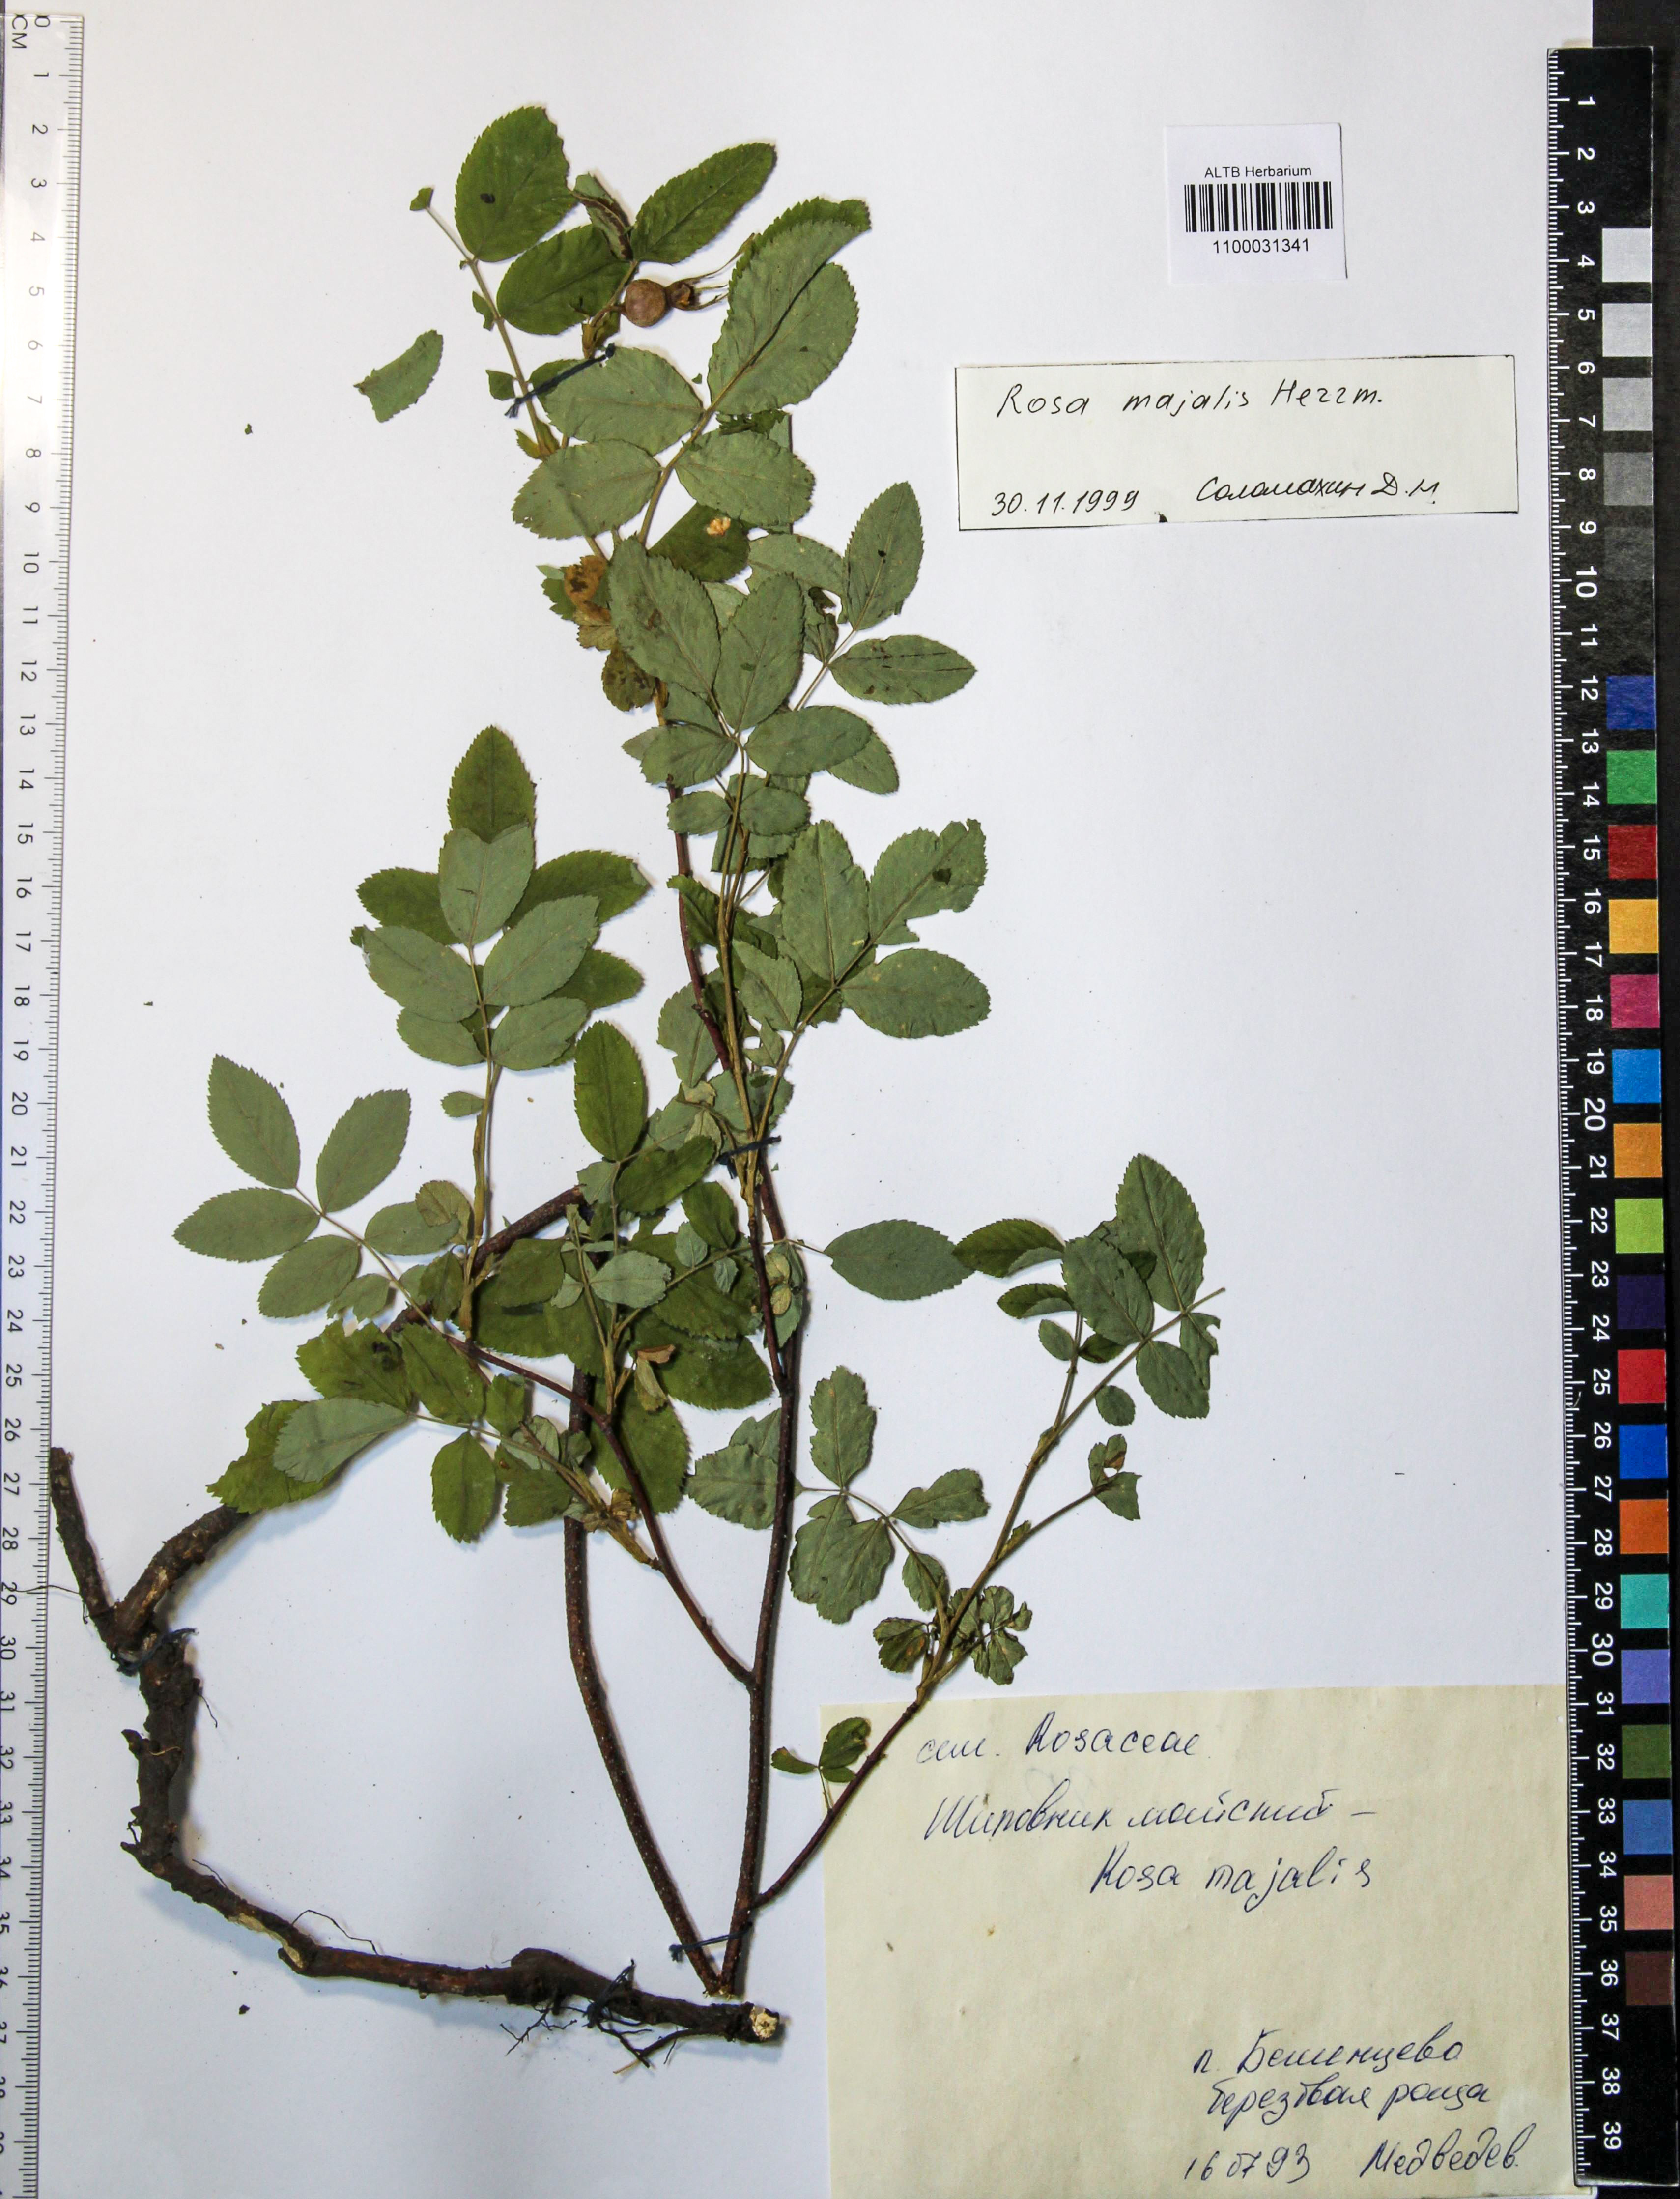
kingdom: Plantae
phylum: Tracheophyta
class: Magnoliopsida
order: Rosales
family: Rosaceae
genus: Rosa
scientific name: Rosa majalis
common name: Cinnamon rose
